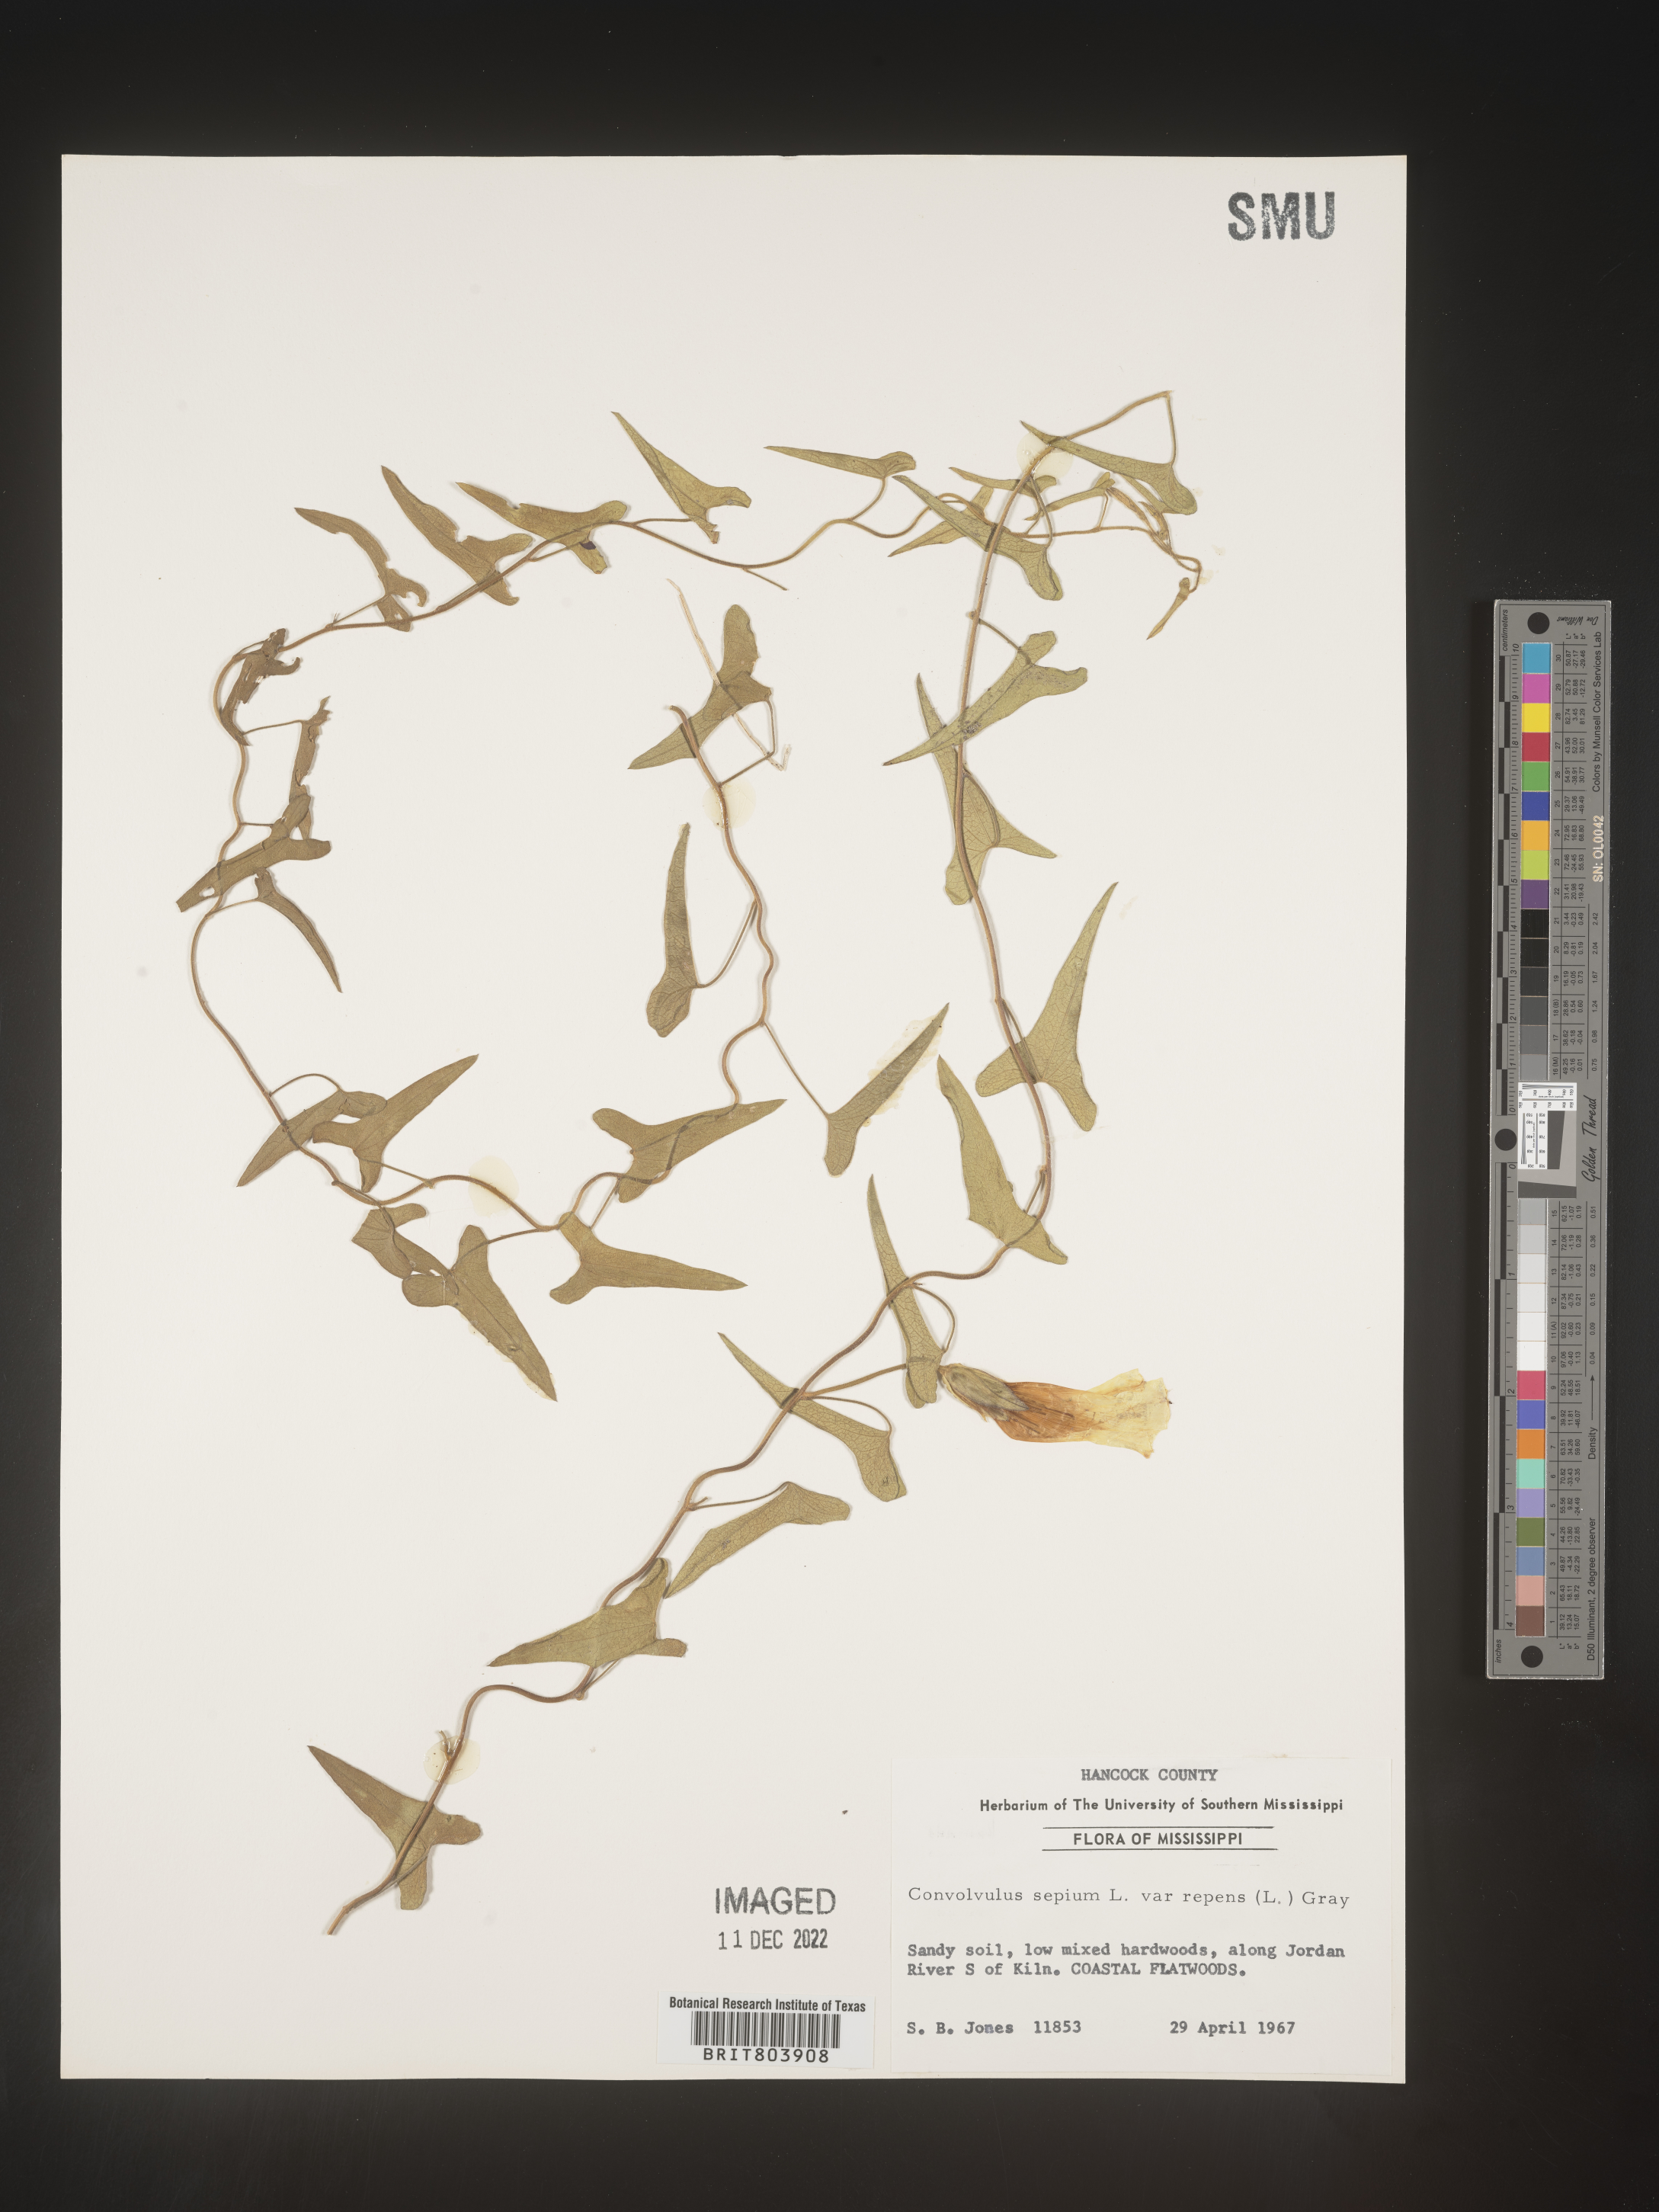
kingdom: Plantae
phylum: Tracheophyta
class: Magnoliopsida
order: Solanales
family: Convolvulaceae
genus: Calystegia
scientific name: Calystegia sepium
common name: Hedge bindweed
